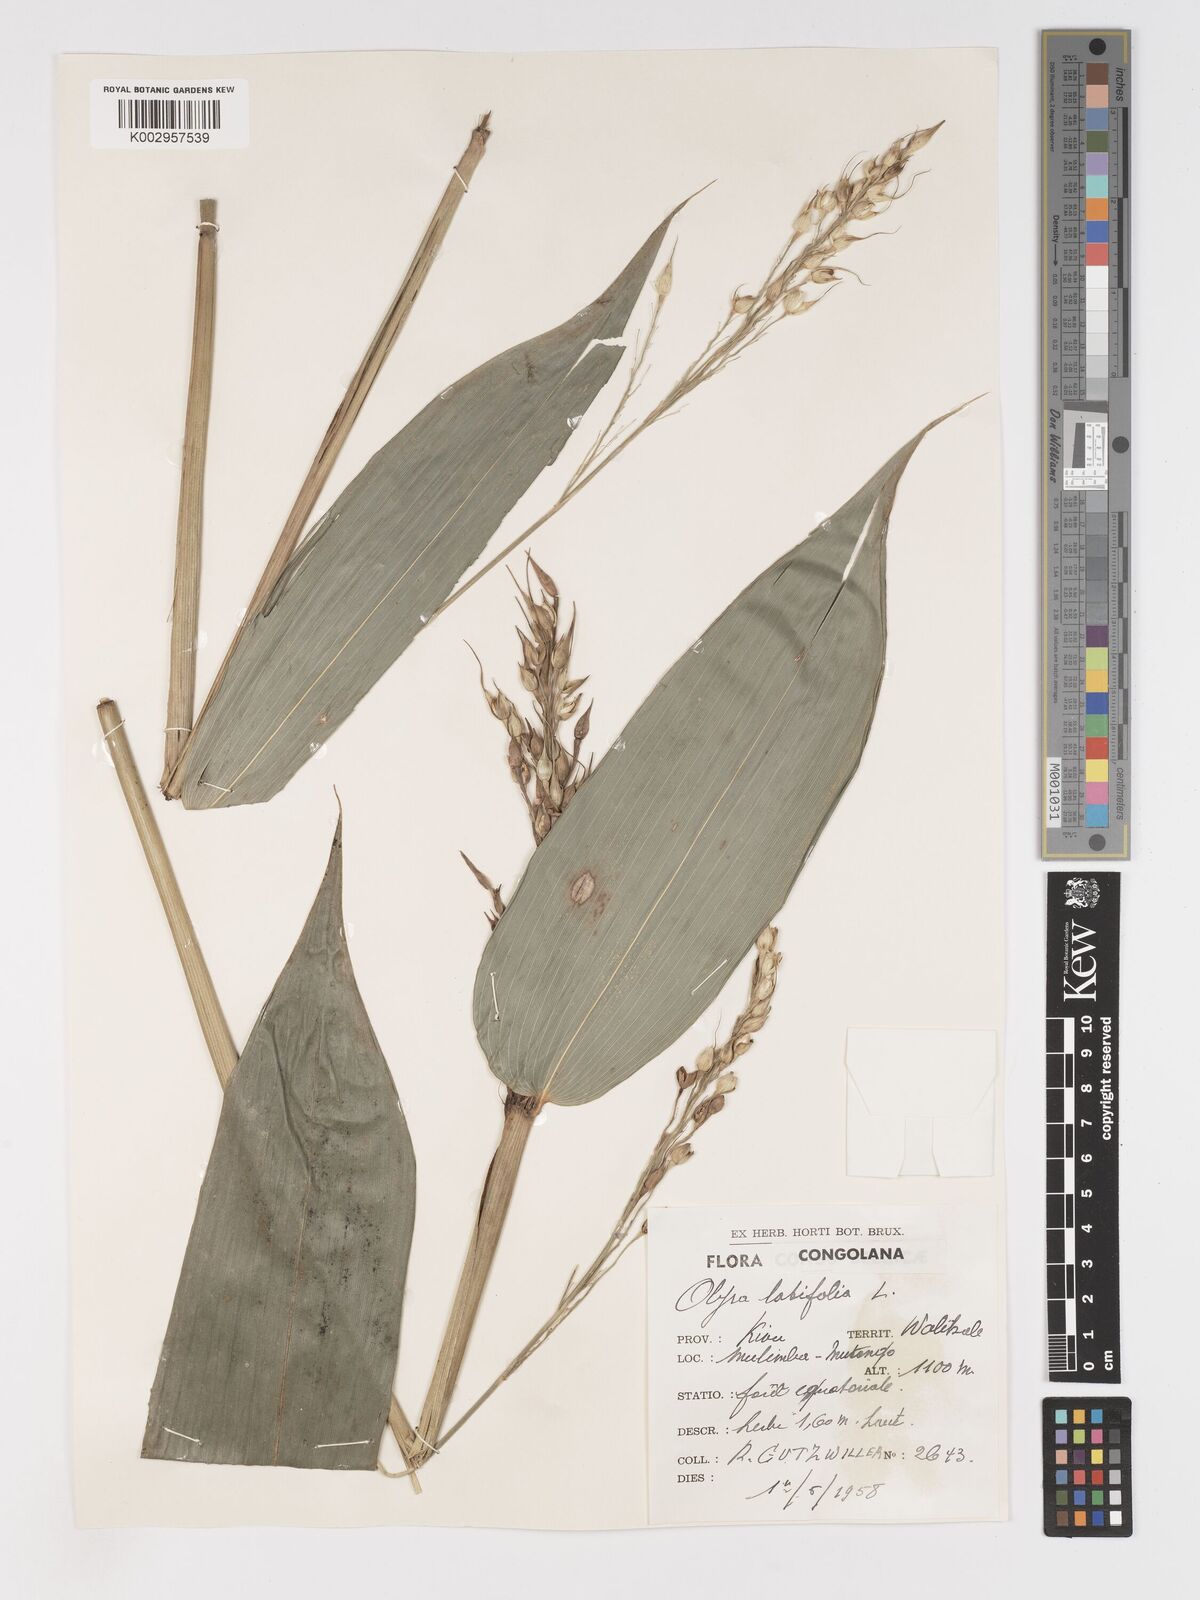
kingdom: Plantae
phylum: Tracheophyta
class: Liliopsida
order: Poales
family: Poaceae
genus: Olyra
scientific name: Olyra latifolia
